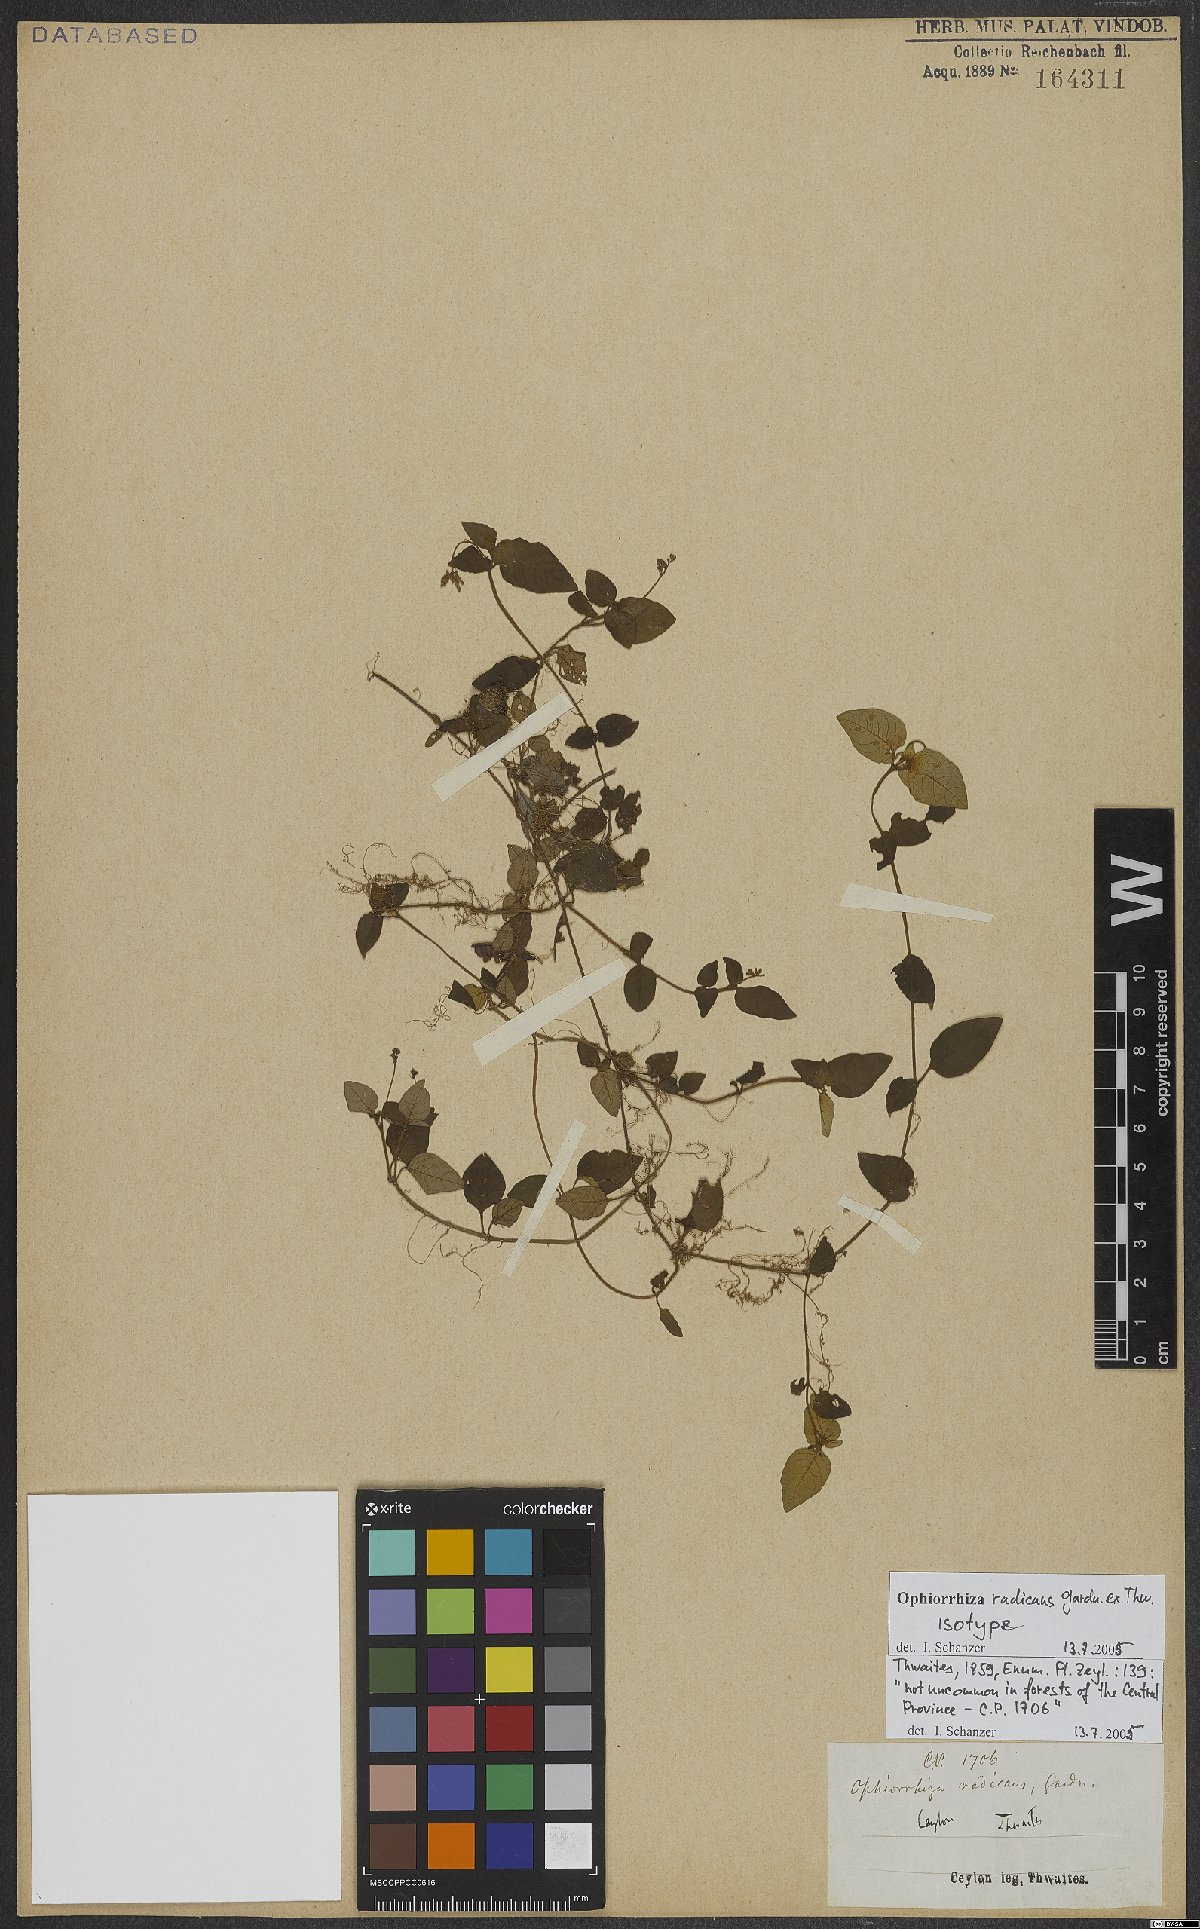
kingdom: Plantae
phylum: Tracheophyta
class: Magnoliopsida
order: Gentianales
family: Rubiaceae
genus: Ophiorrhiza
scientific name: Ophiorrhiza radicans
